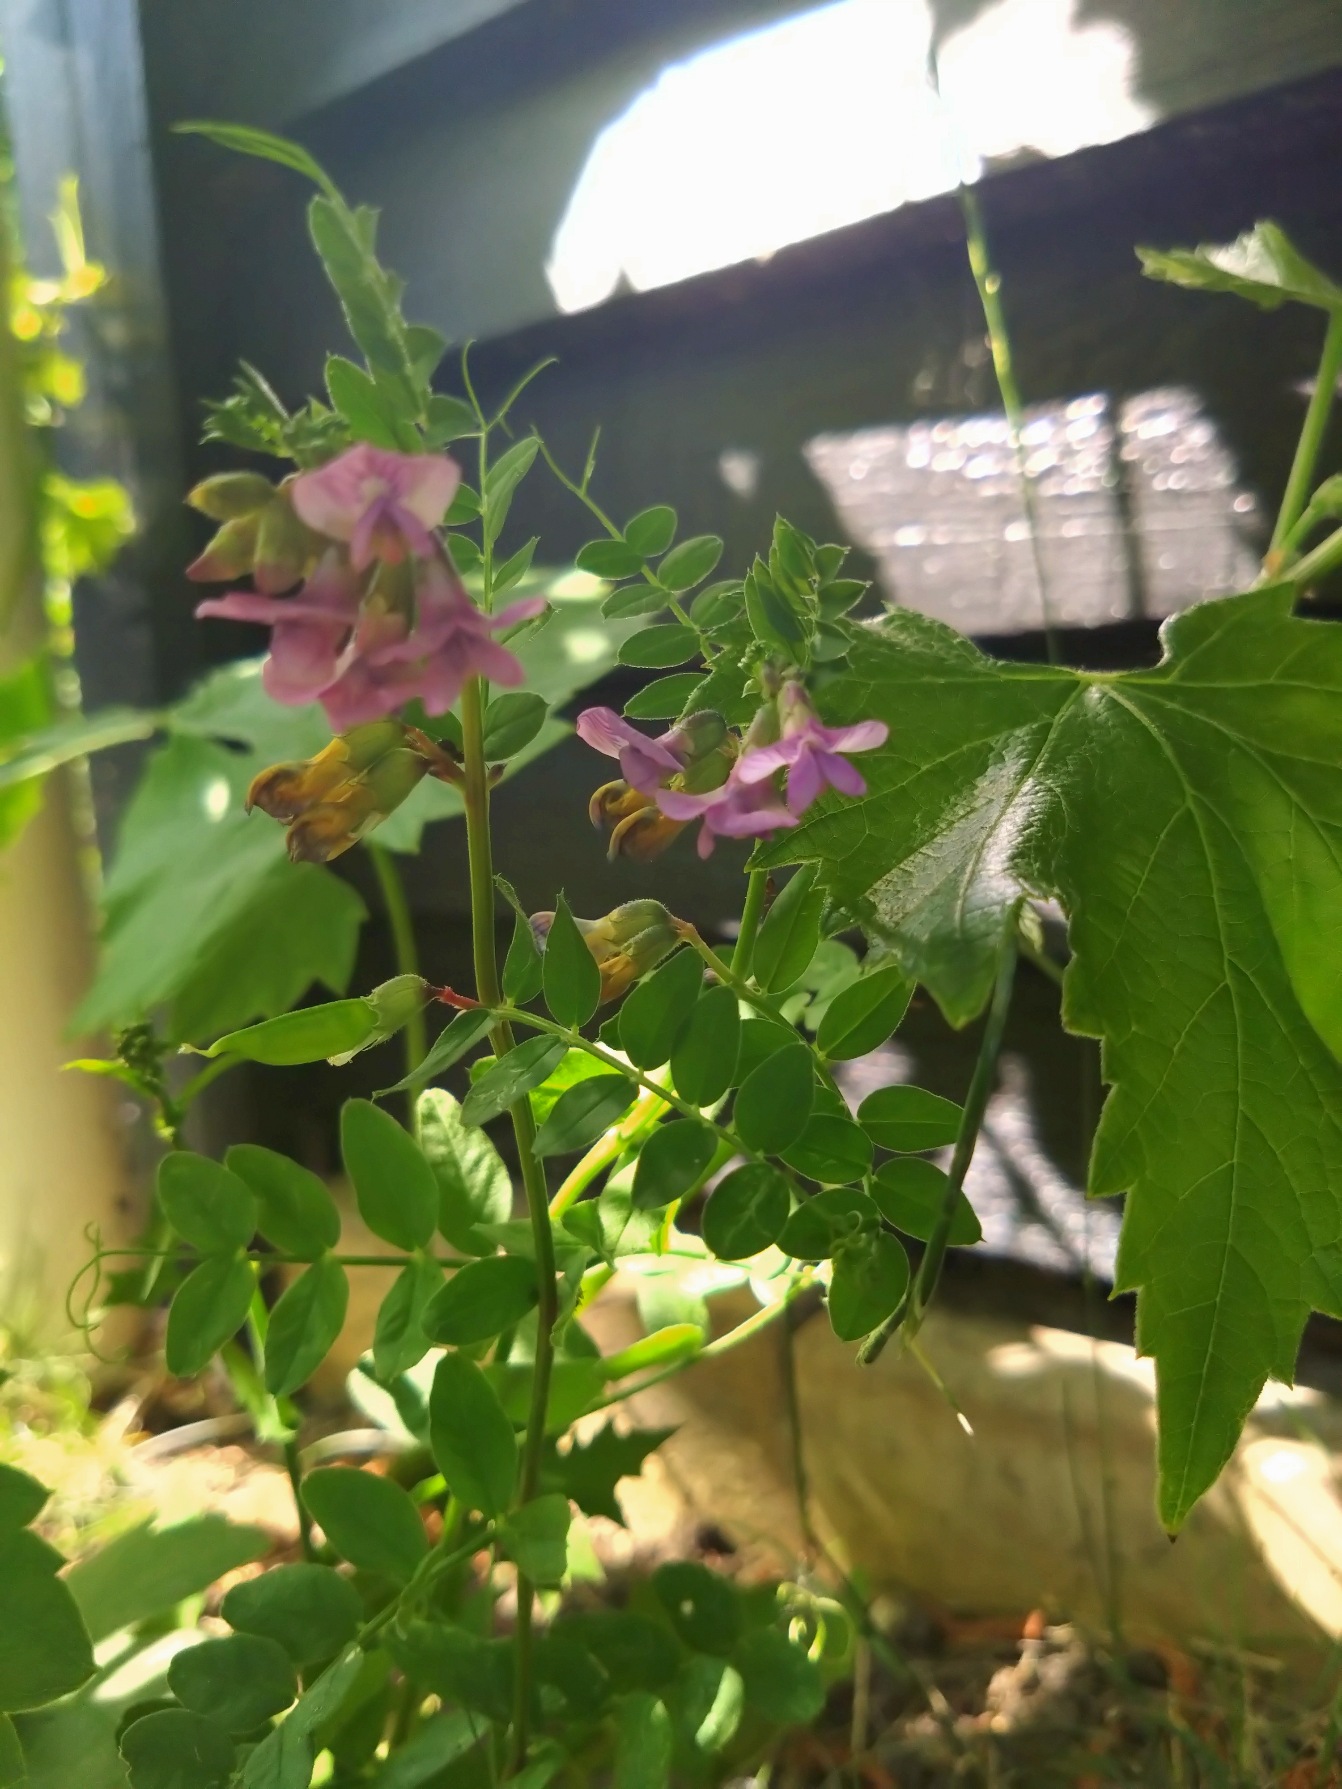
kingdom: Plantae
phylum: Tracheophyta
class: Magnoliopsida
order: Fabales
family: Fabaceae
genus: Vicia
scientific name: Vicia sepium
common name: Gærde-vikke
